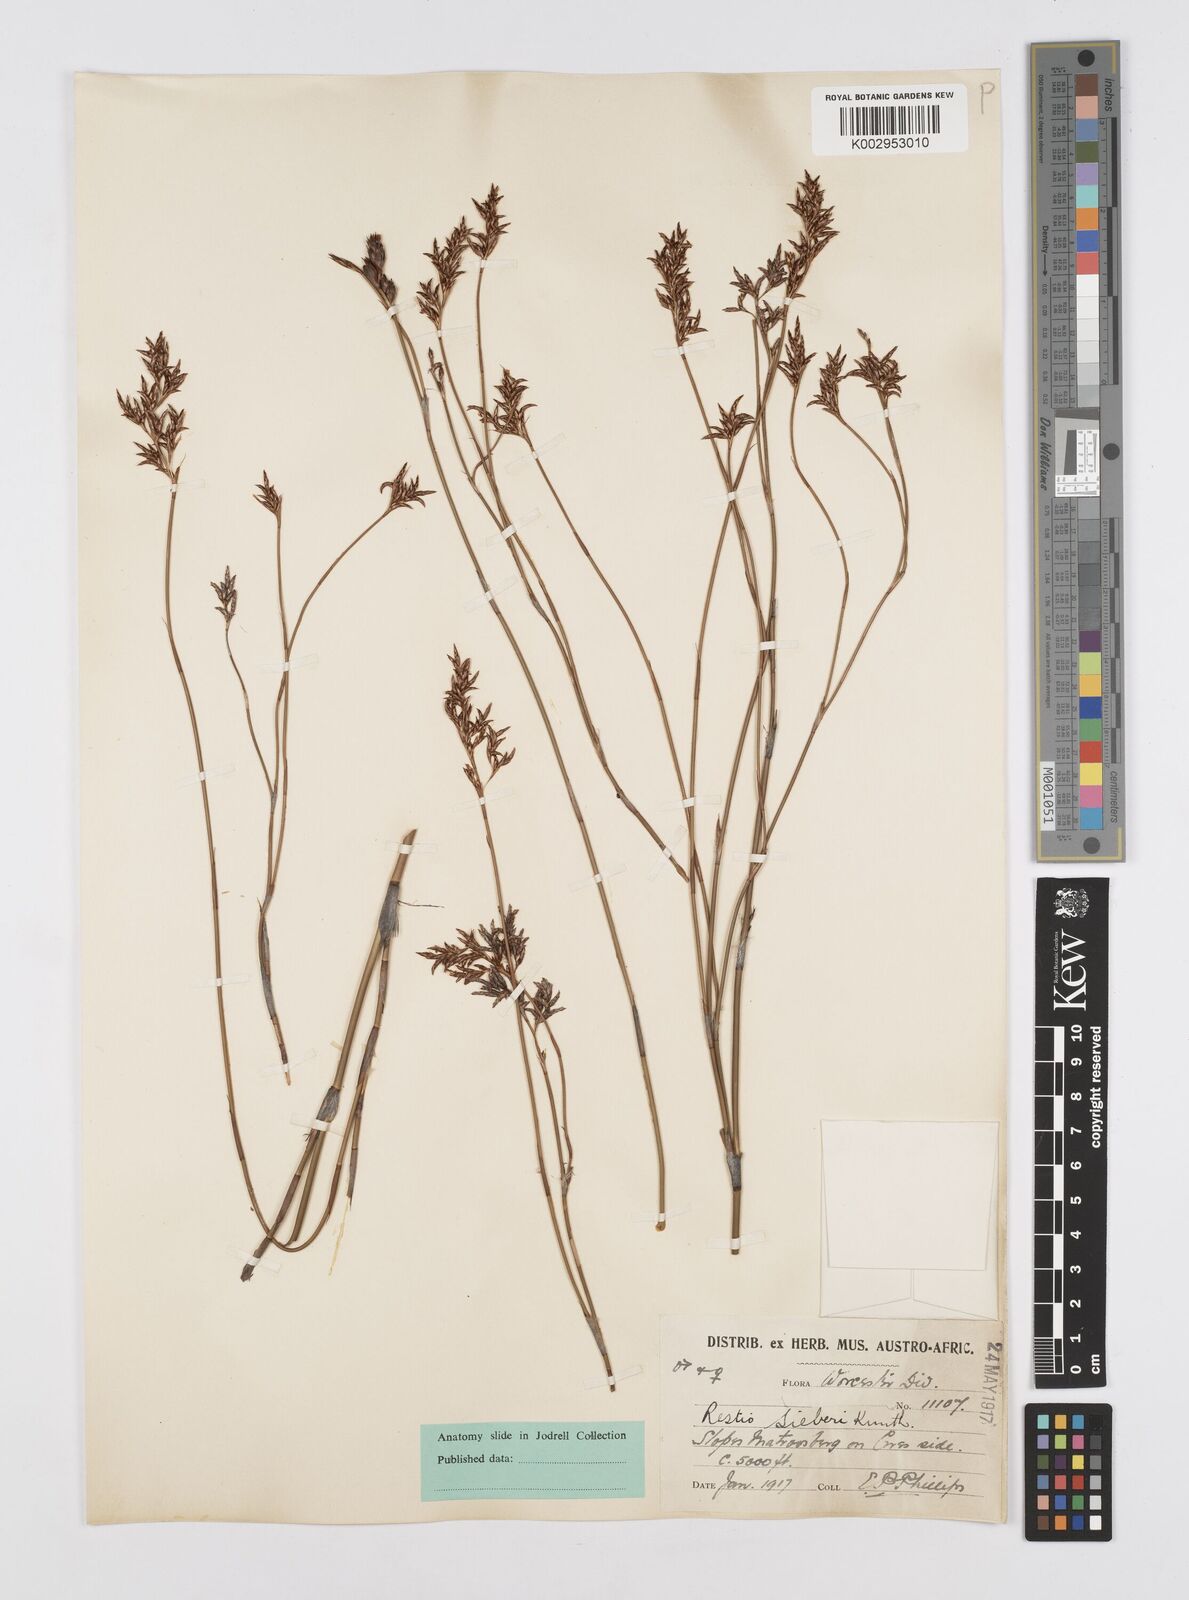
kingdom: Plantae
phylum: Tracheophyta
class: Liliopsida
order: Poales
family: Restionaceae
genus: Restio
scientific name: Restio sieberi
